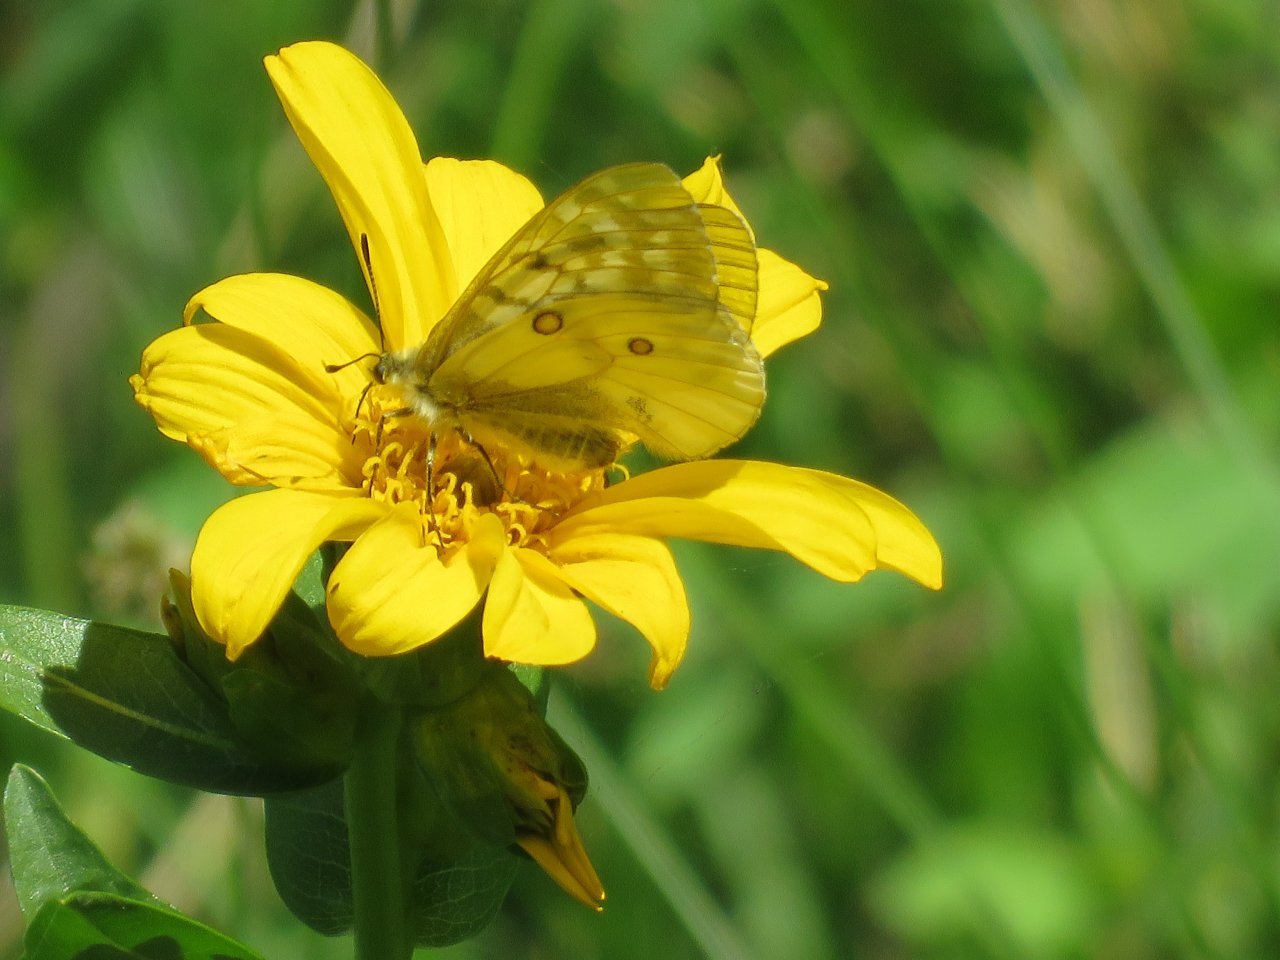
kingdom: Animalia
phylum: Arthropoda
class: Insecta
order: Lepidoptera
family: Papilionidae
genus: Parnassius
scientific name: Parnassius clodius
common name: Clodius Parnassian
